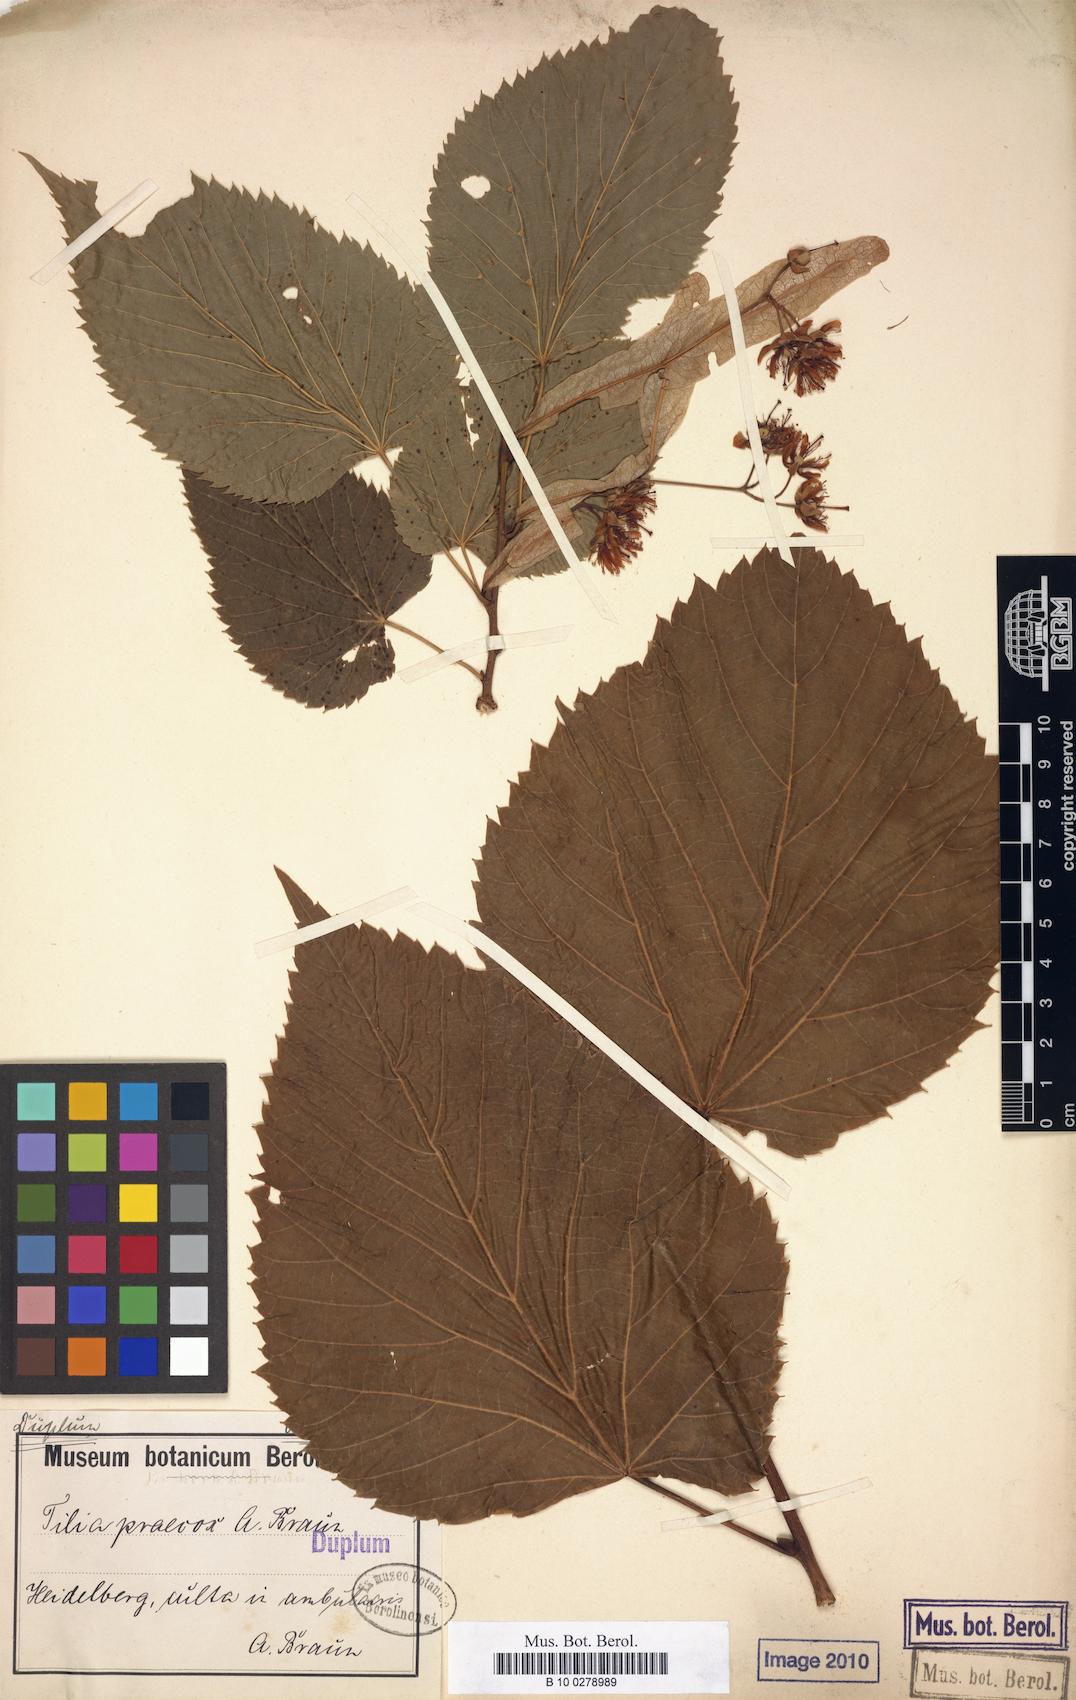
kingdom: Plantae
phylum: Tracheophyta
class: Magnoliopsida
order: Malvales
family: Malvaceae
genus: Tilia
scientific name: Tilia flaccida
